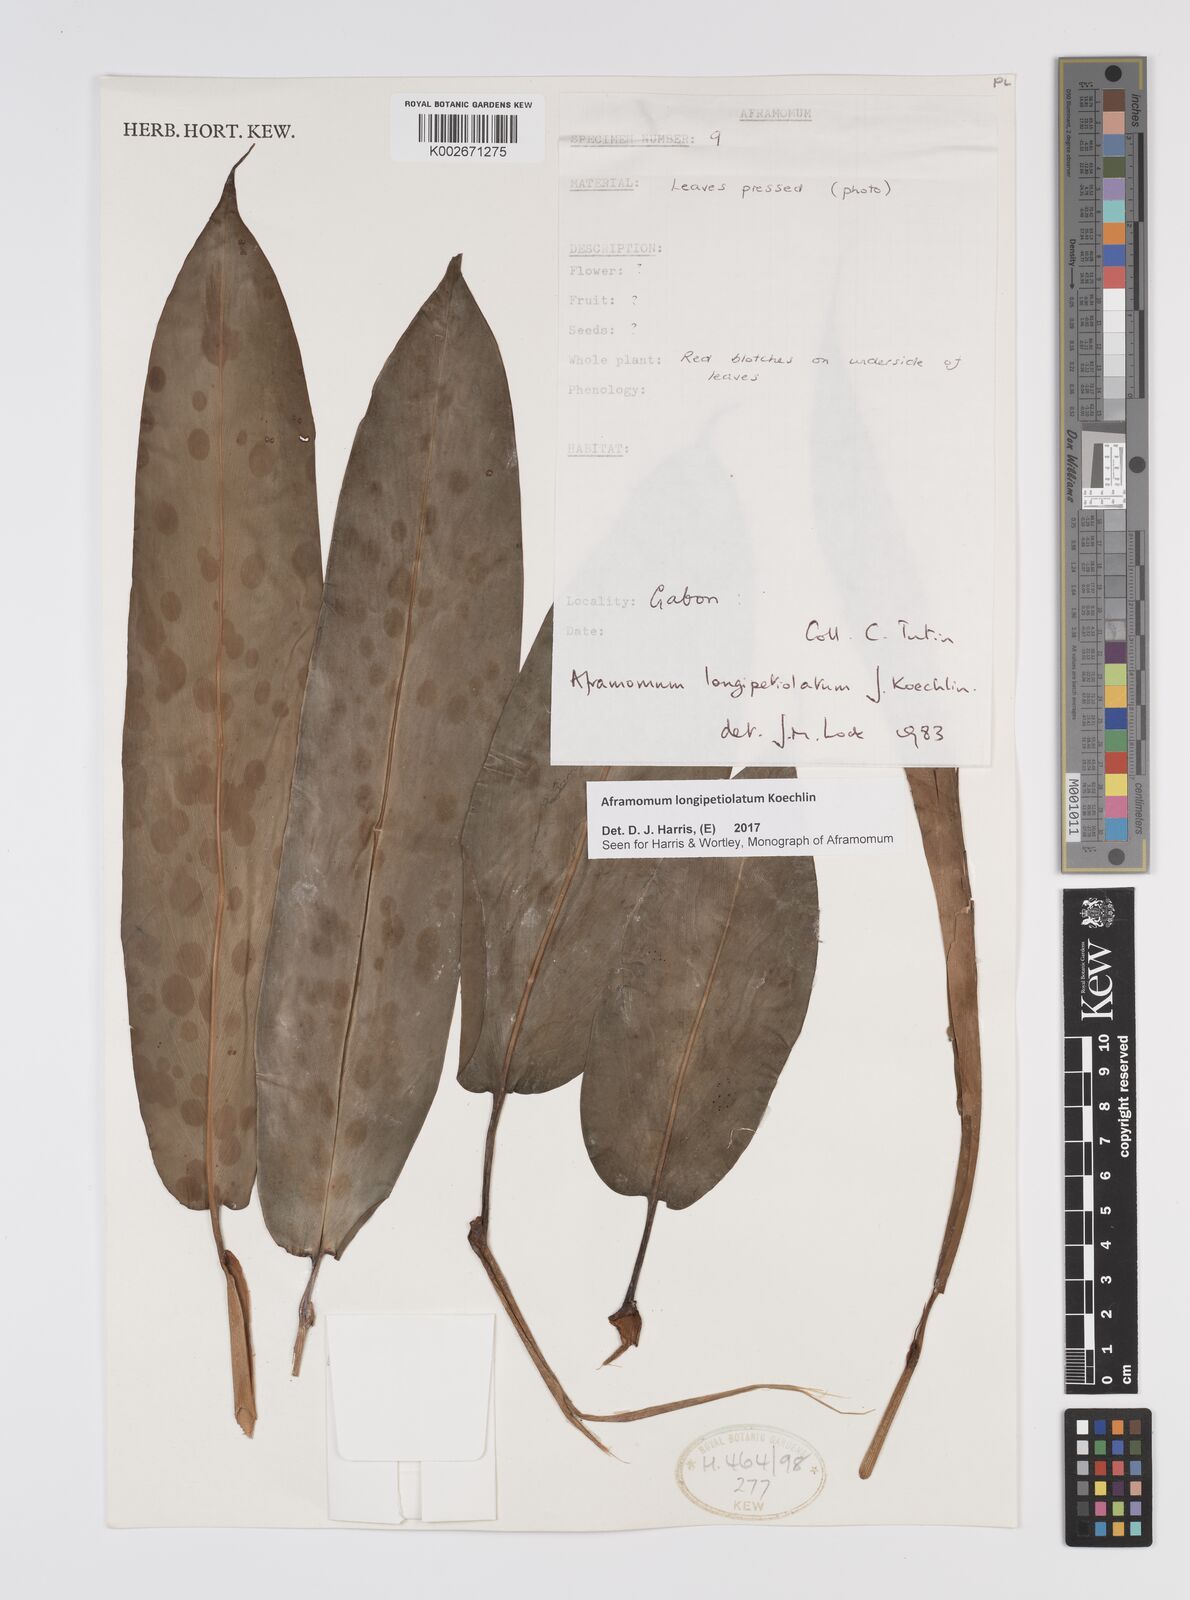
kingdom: Plantae
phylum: Tracheophyta
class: Liliopsida
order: Zingiberales
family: Zingiberaceae
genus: Aframomum
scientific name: Aframomum longipetiolatum
